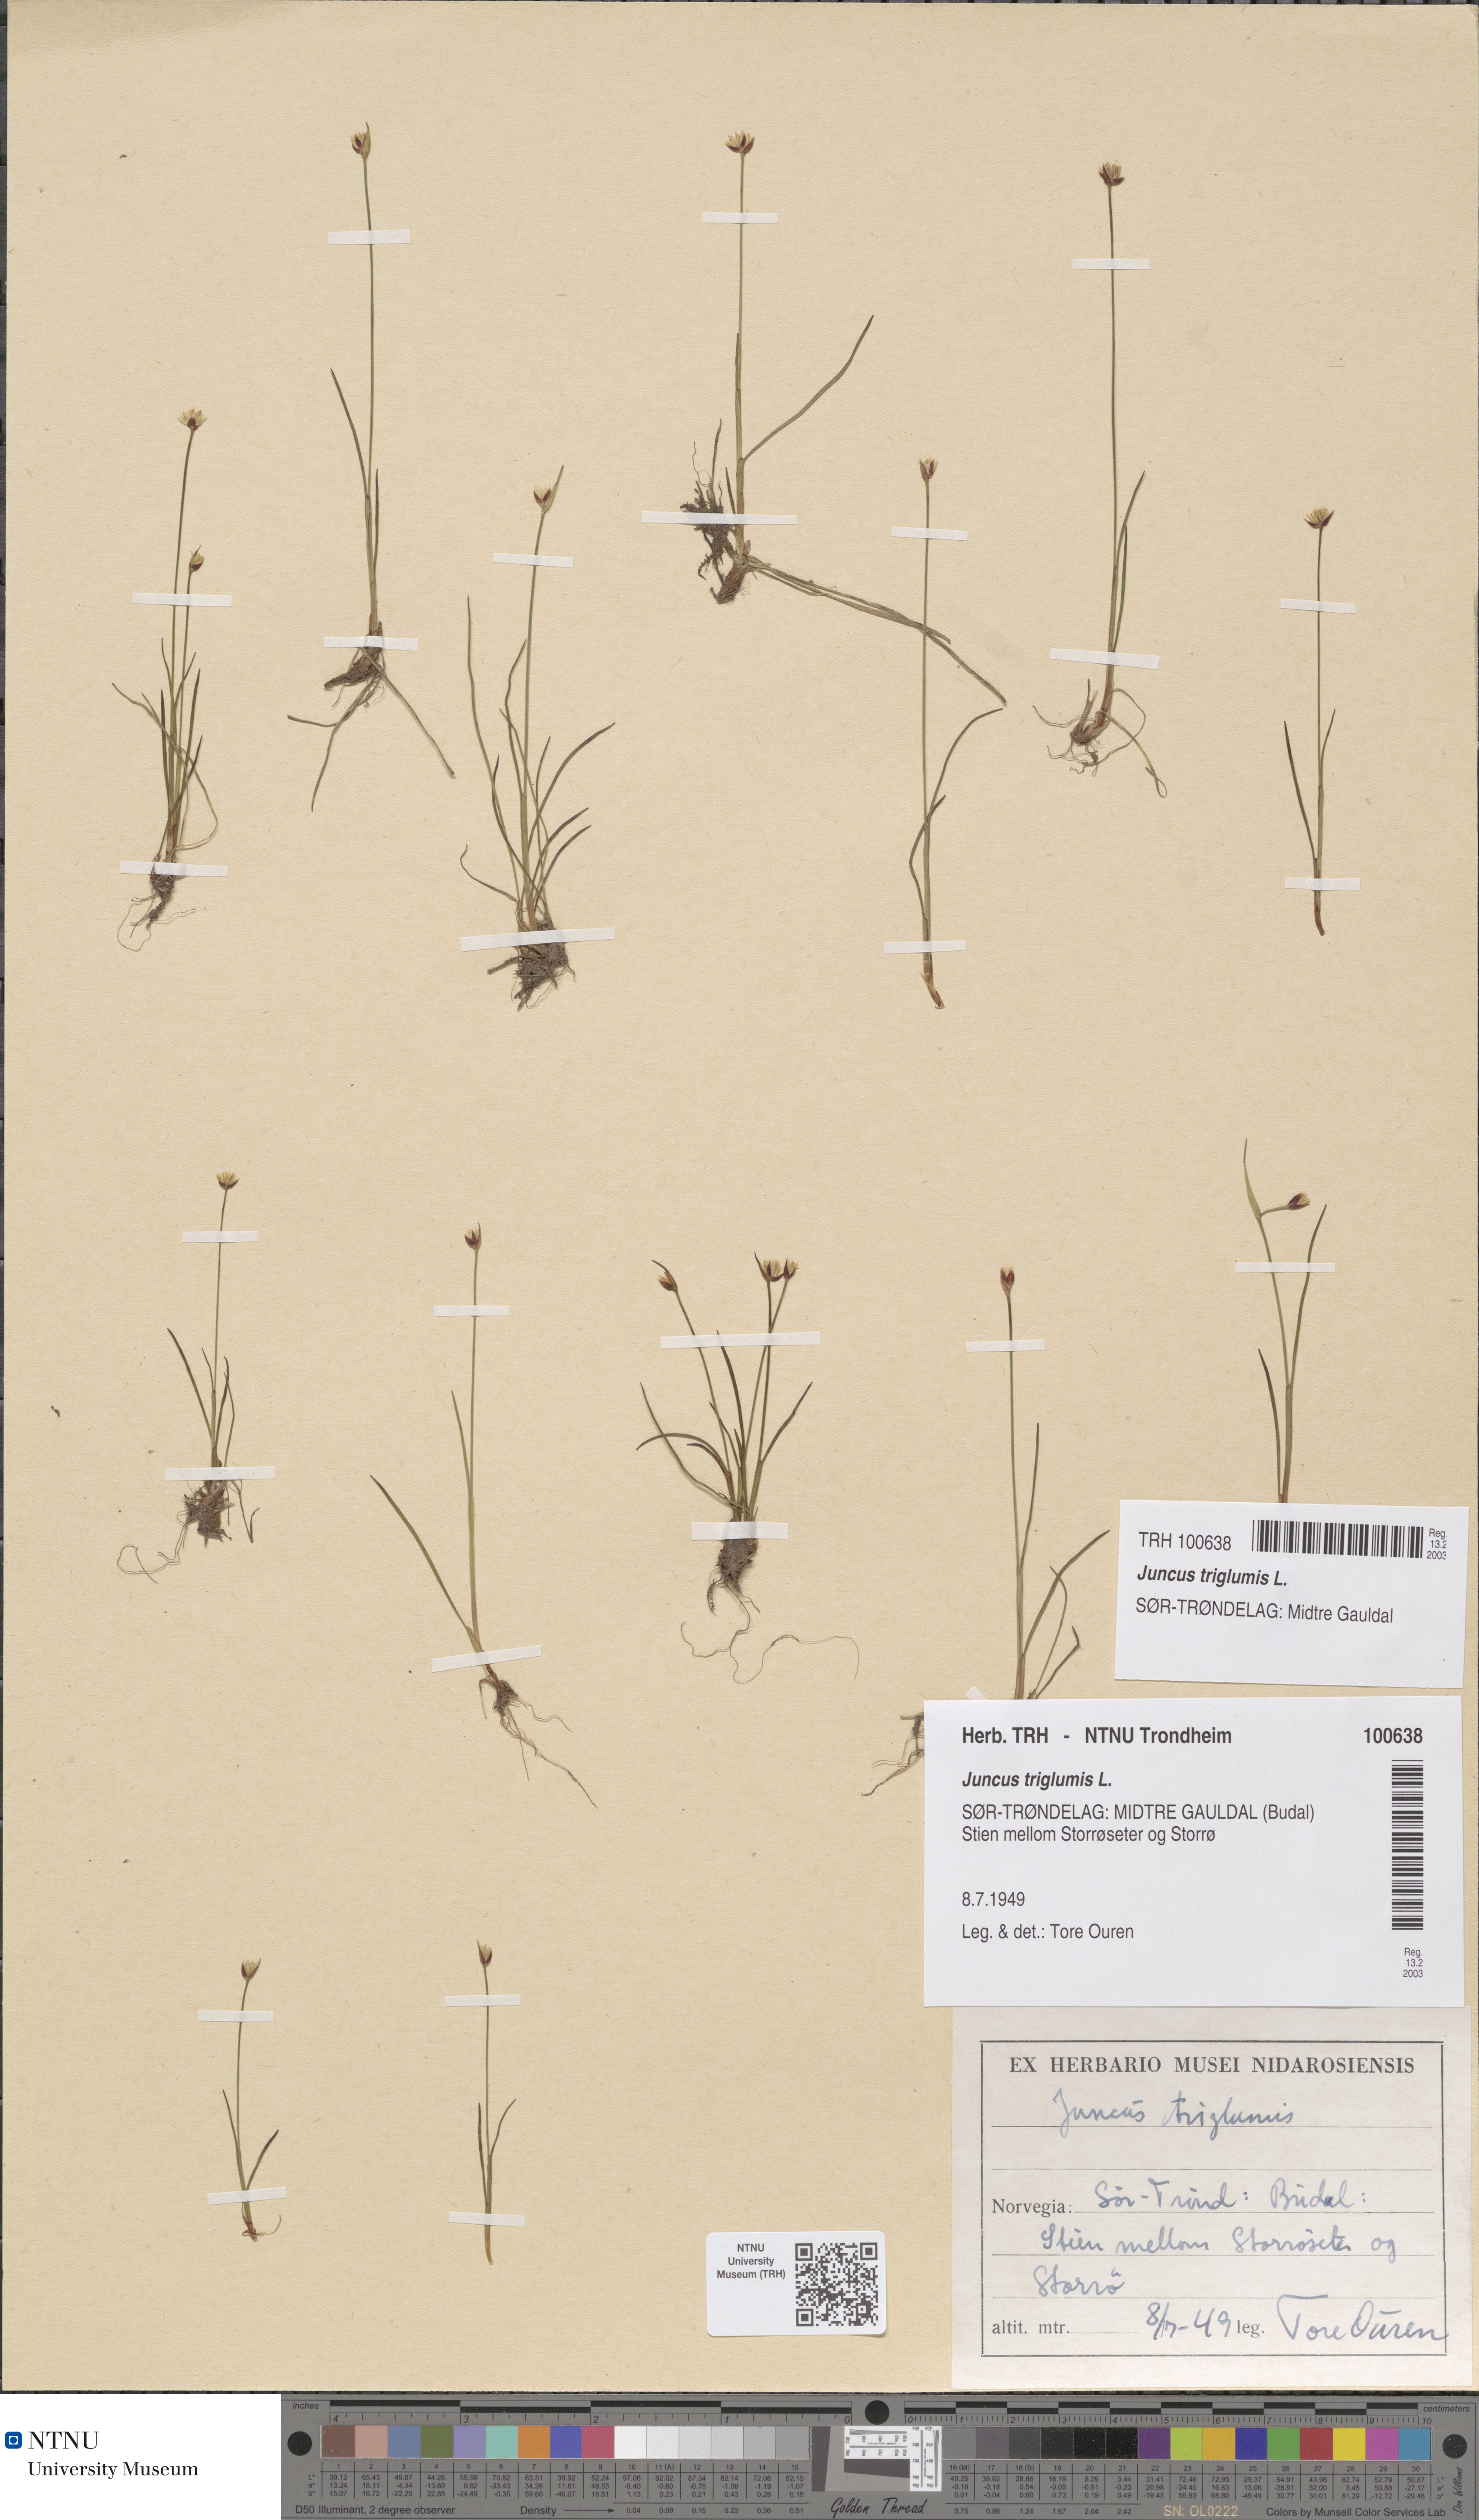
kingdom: Plantae
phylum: Tracheophyta
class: Liliopsida
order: Poales
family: Juncaceae
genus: Juncus
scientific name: Juncus triglumis
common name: Three-flowered rush
